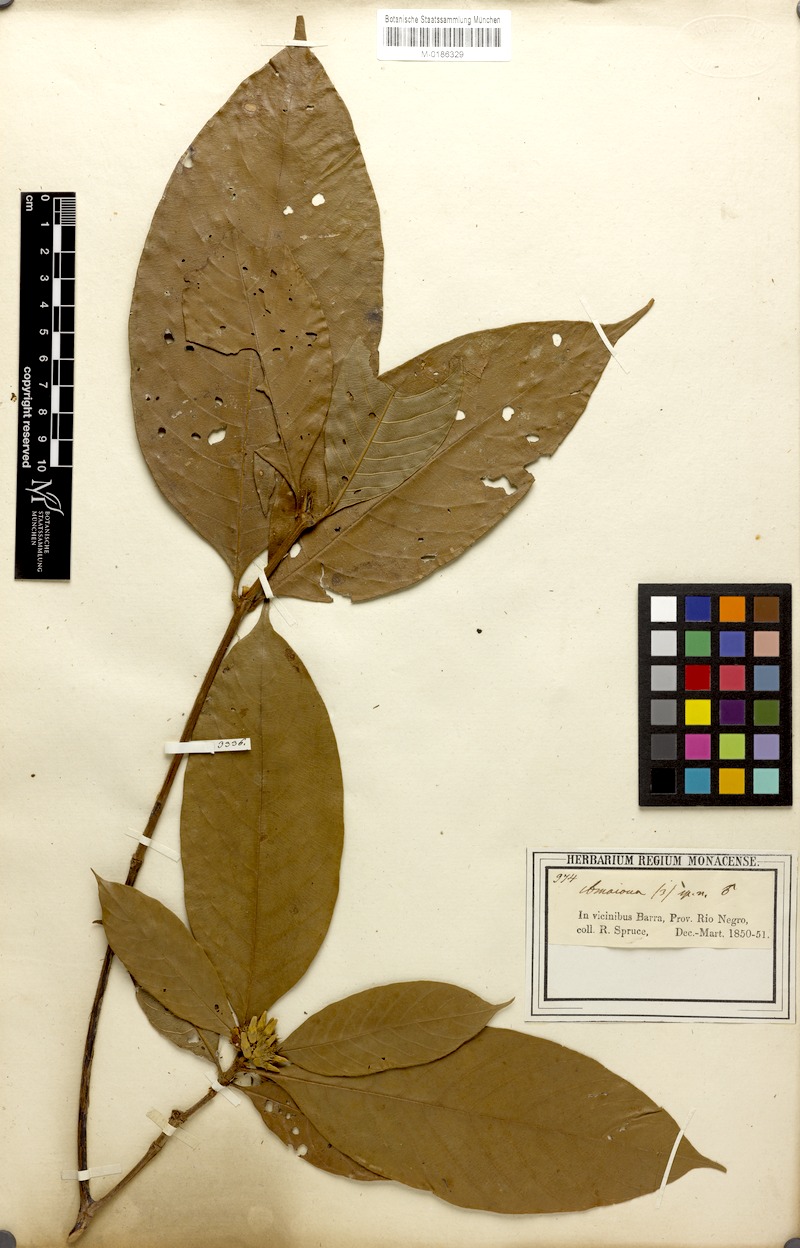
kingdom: Plantae
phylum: Tracheophyta
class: Magnoliopsida
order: Gentianales
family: Rubiaceae
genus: Amaioua
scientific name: Amaioua guianensis
